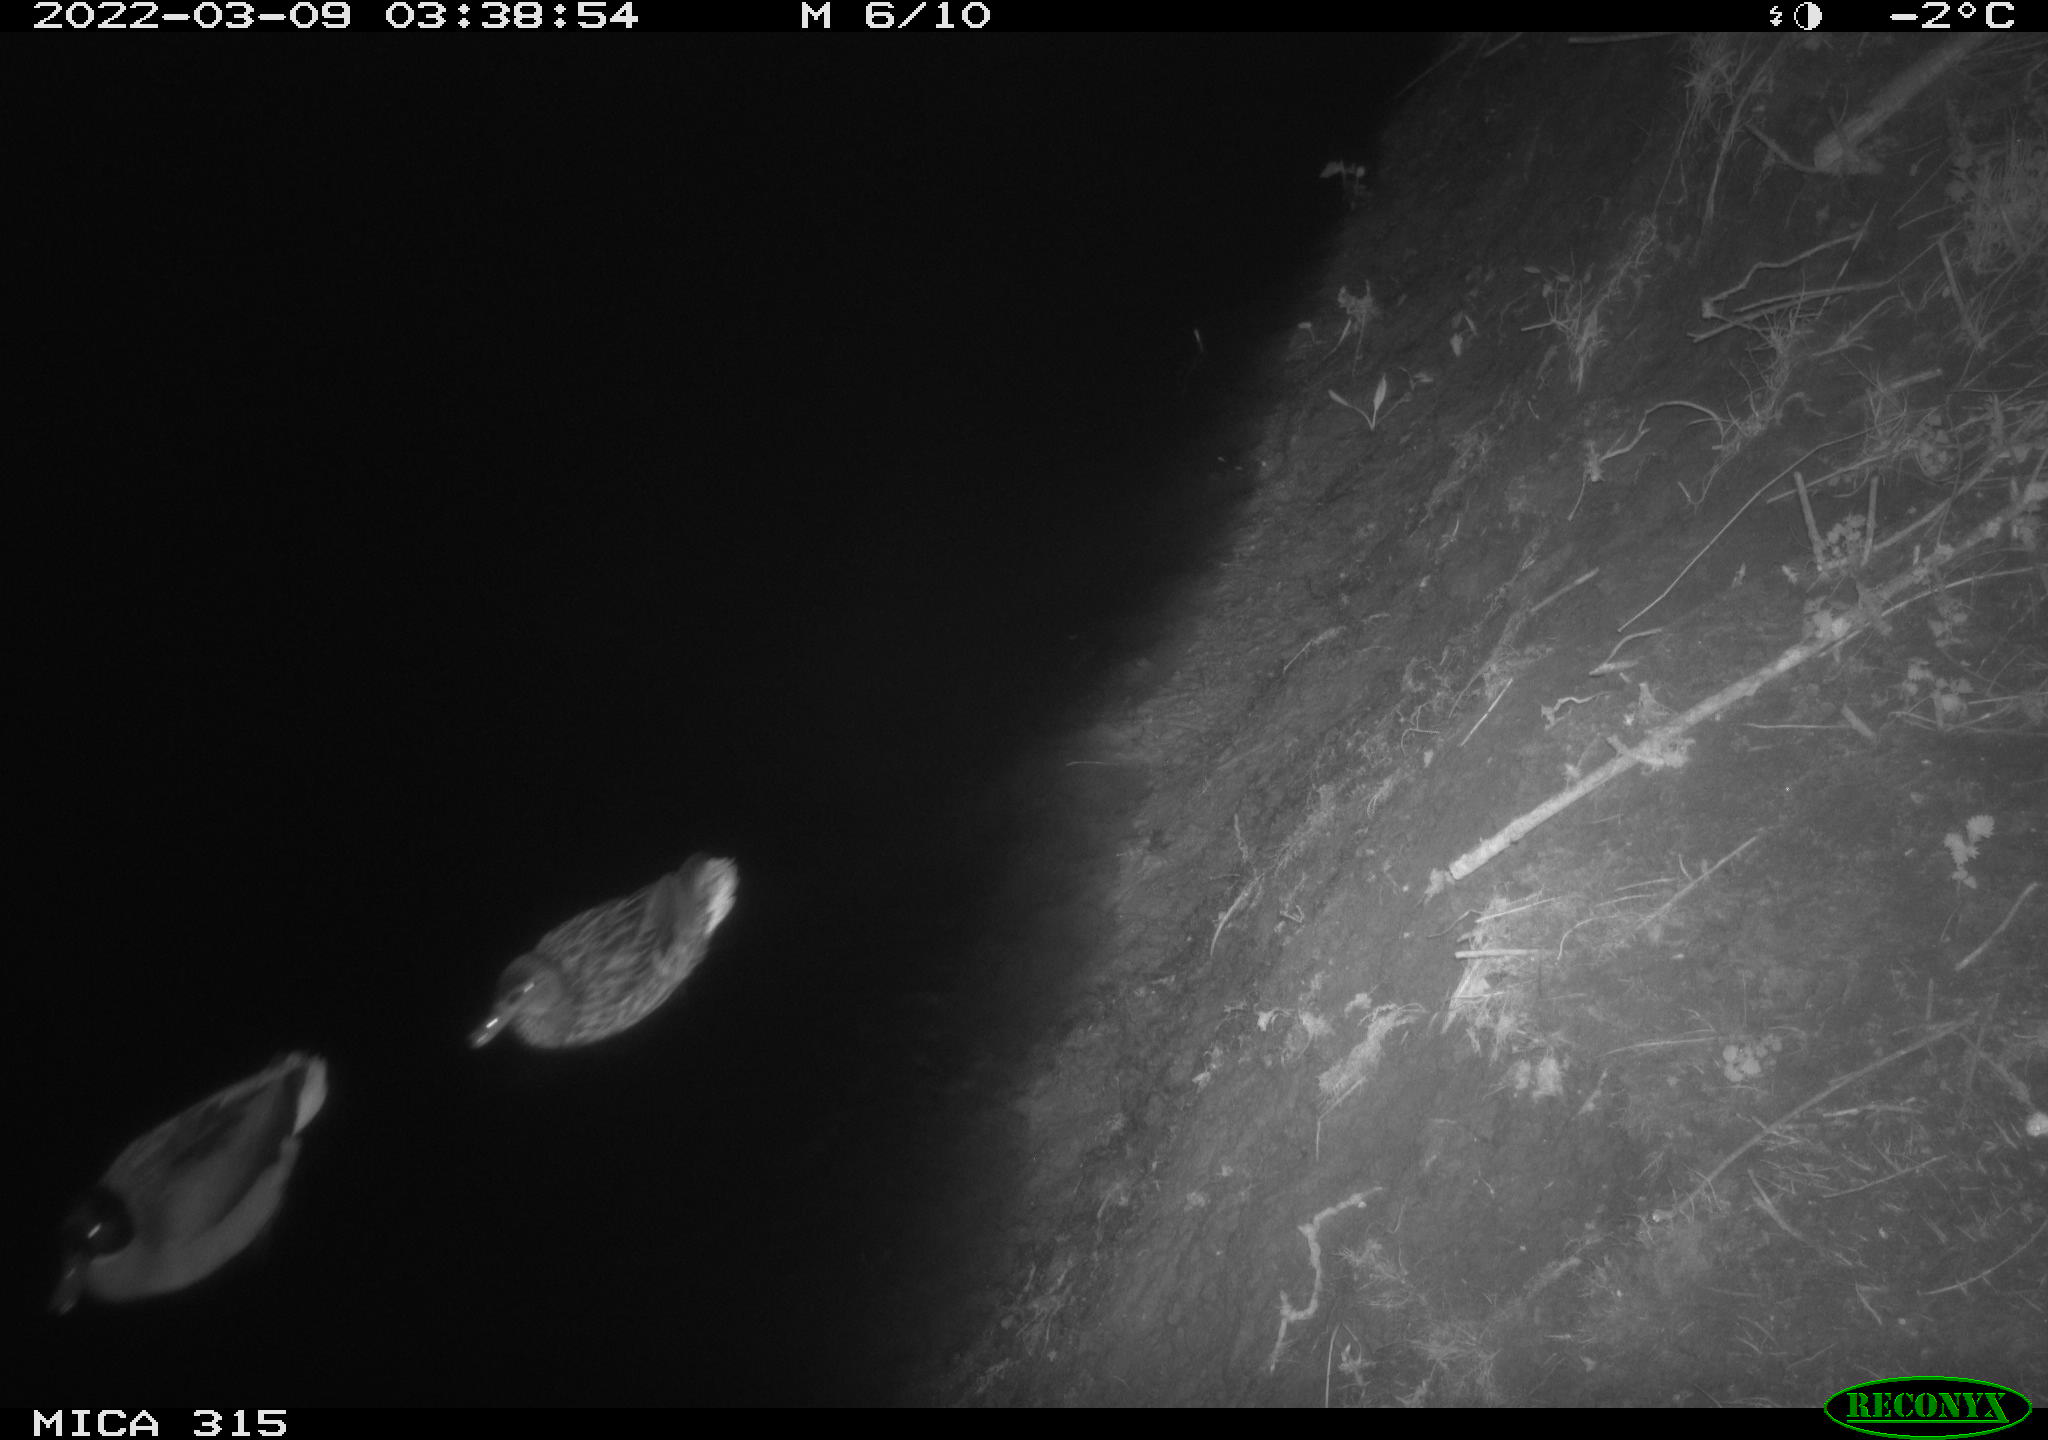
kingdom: Animalia
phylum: Chordata
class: Aves
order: Anseriformes
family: Anatidae
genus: Anas
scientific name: Anas platyrhynchos
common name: Mallard
